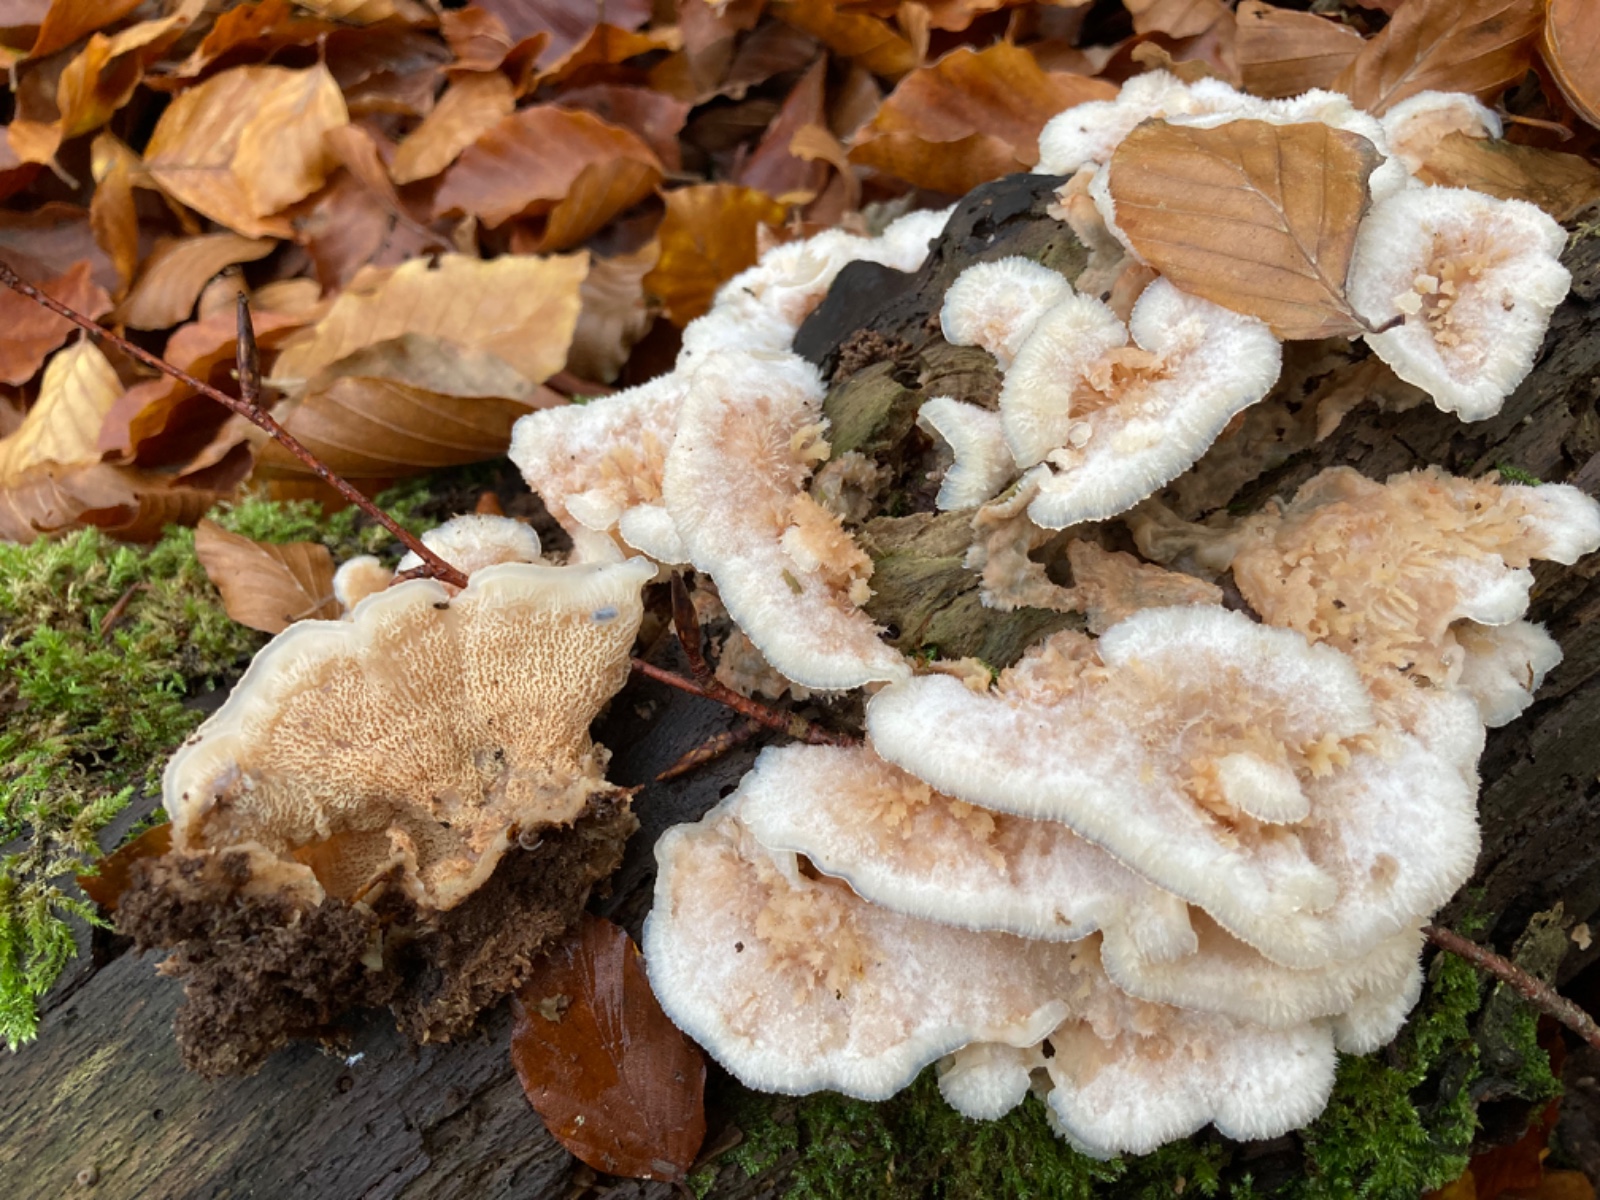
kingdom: Fungi
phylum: Basidiomycota
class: Agaricomycetes
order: Polyporales
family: Meruliaceae
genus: Phlebia
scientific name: Phlebia tremellosa
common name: bævrende åresvamp
